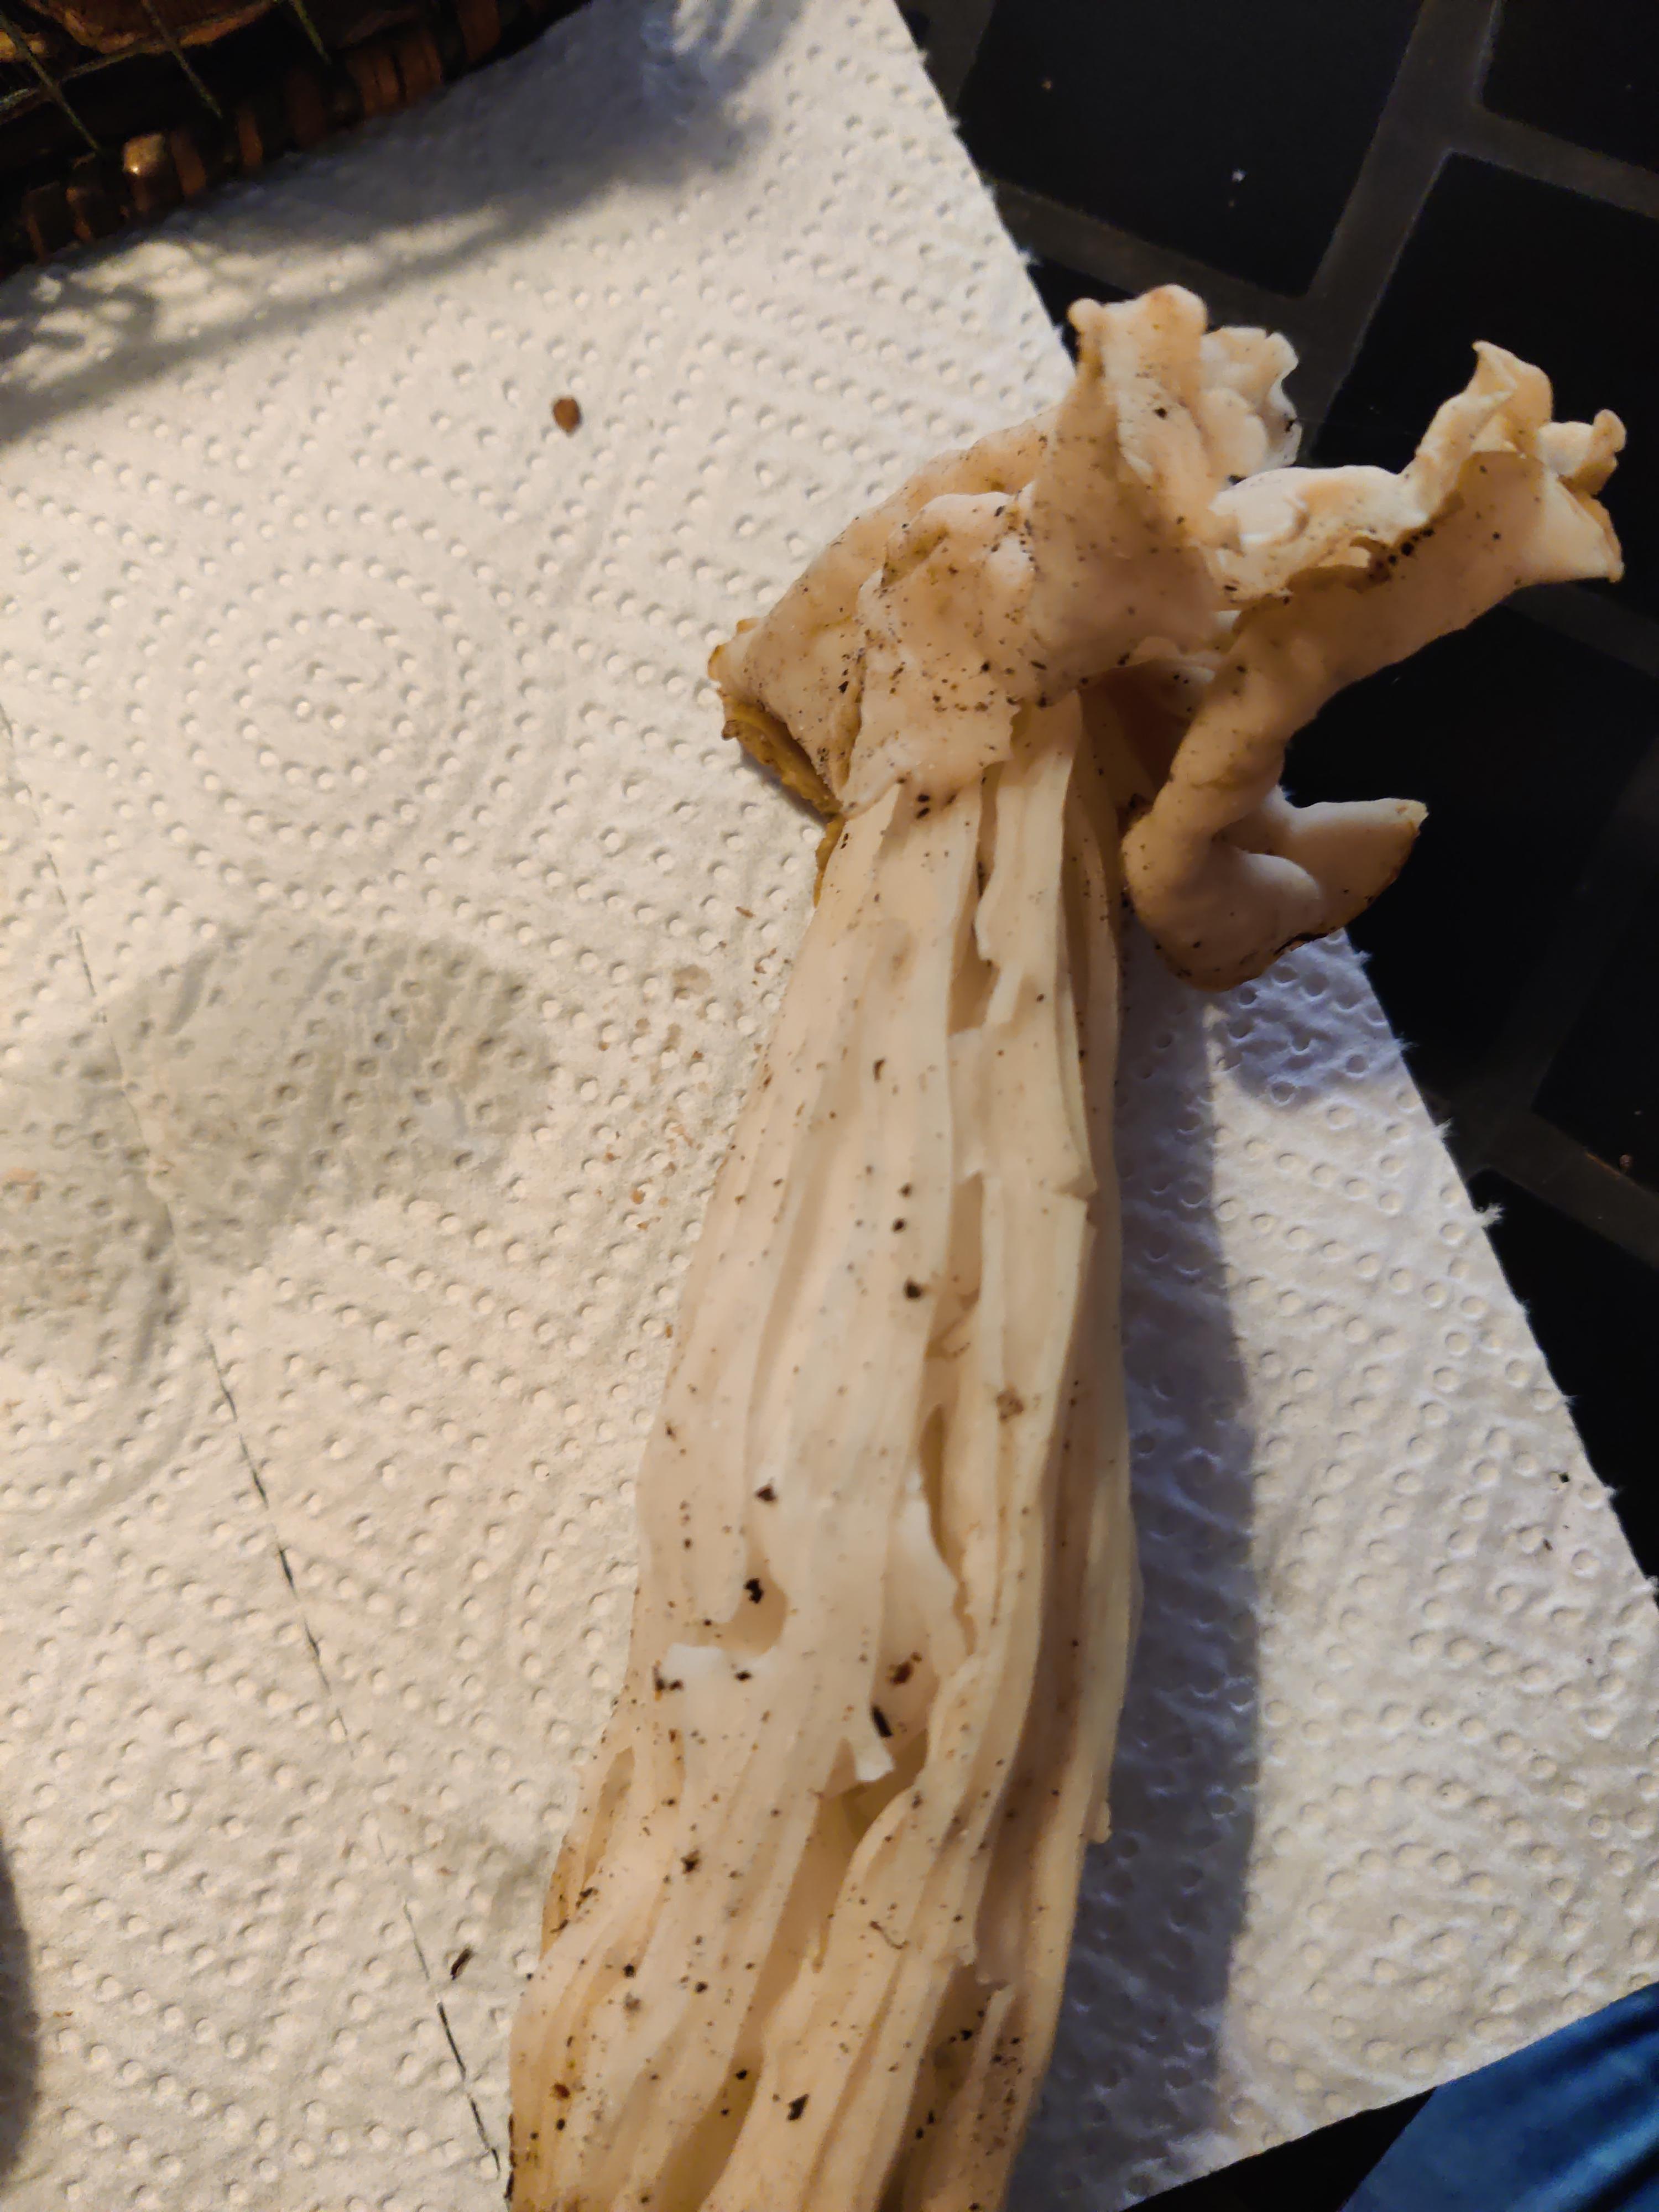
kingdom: Fungi
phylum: Ascomycota
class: Pezizomycetes
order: Pezizales
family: Helvellaceae
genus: Helvella
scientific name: Helvella crispa
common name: kruset foldhat
